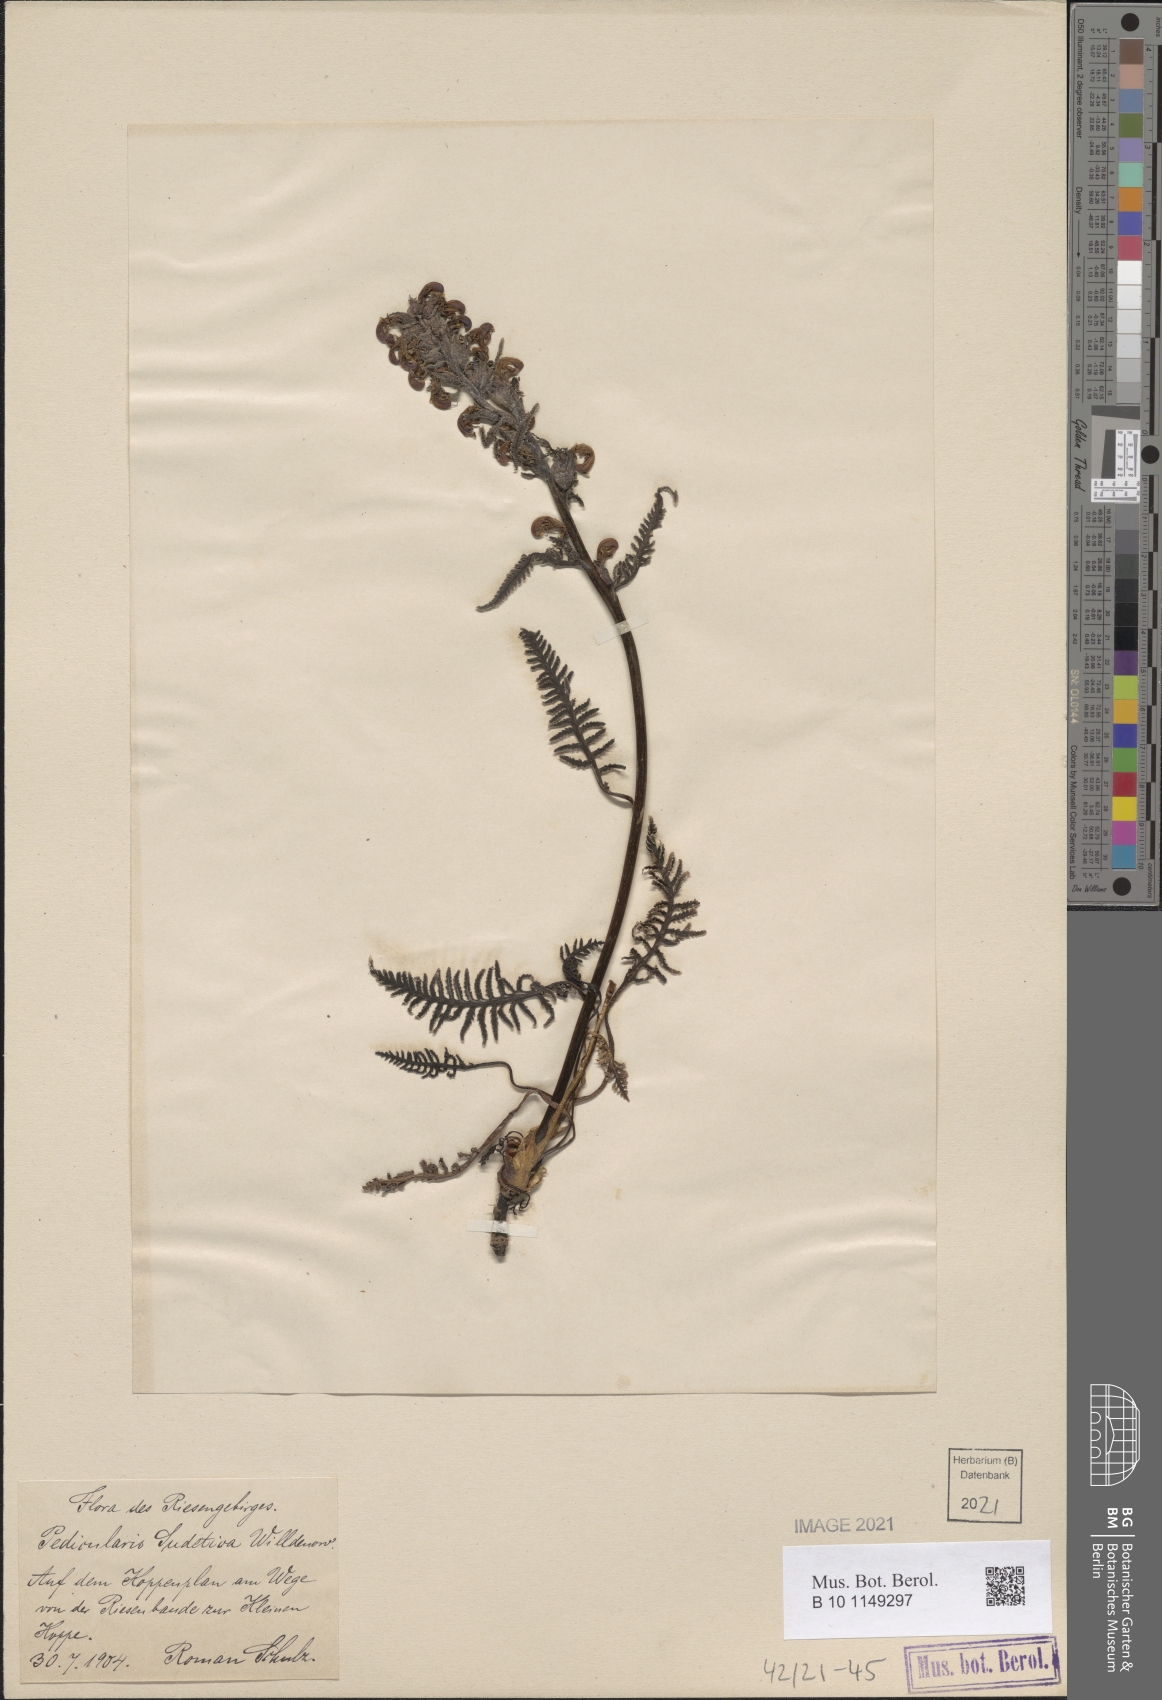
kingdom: Plantae
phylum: Tracheophyta
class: Magnoliopsida
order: Lamiales
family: Orobanchaceae
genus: Pedicularis
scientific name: Pedicularis sudetica
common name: Sudeten lousewort
